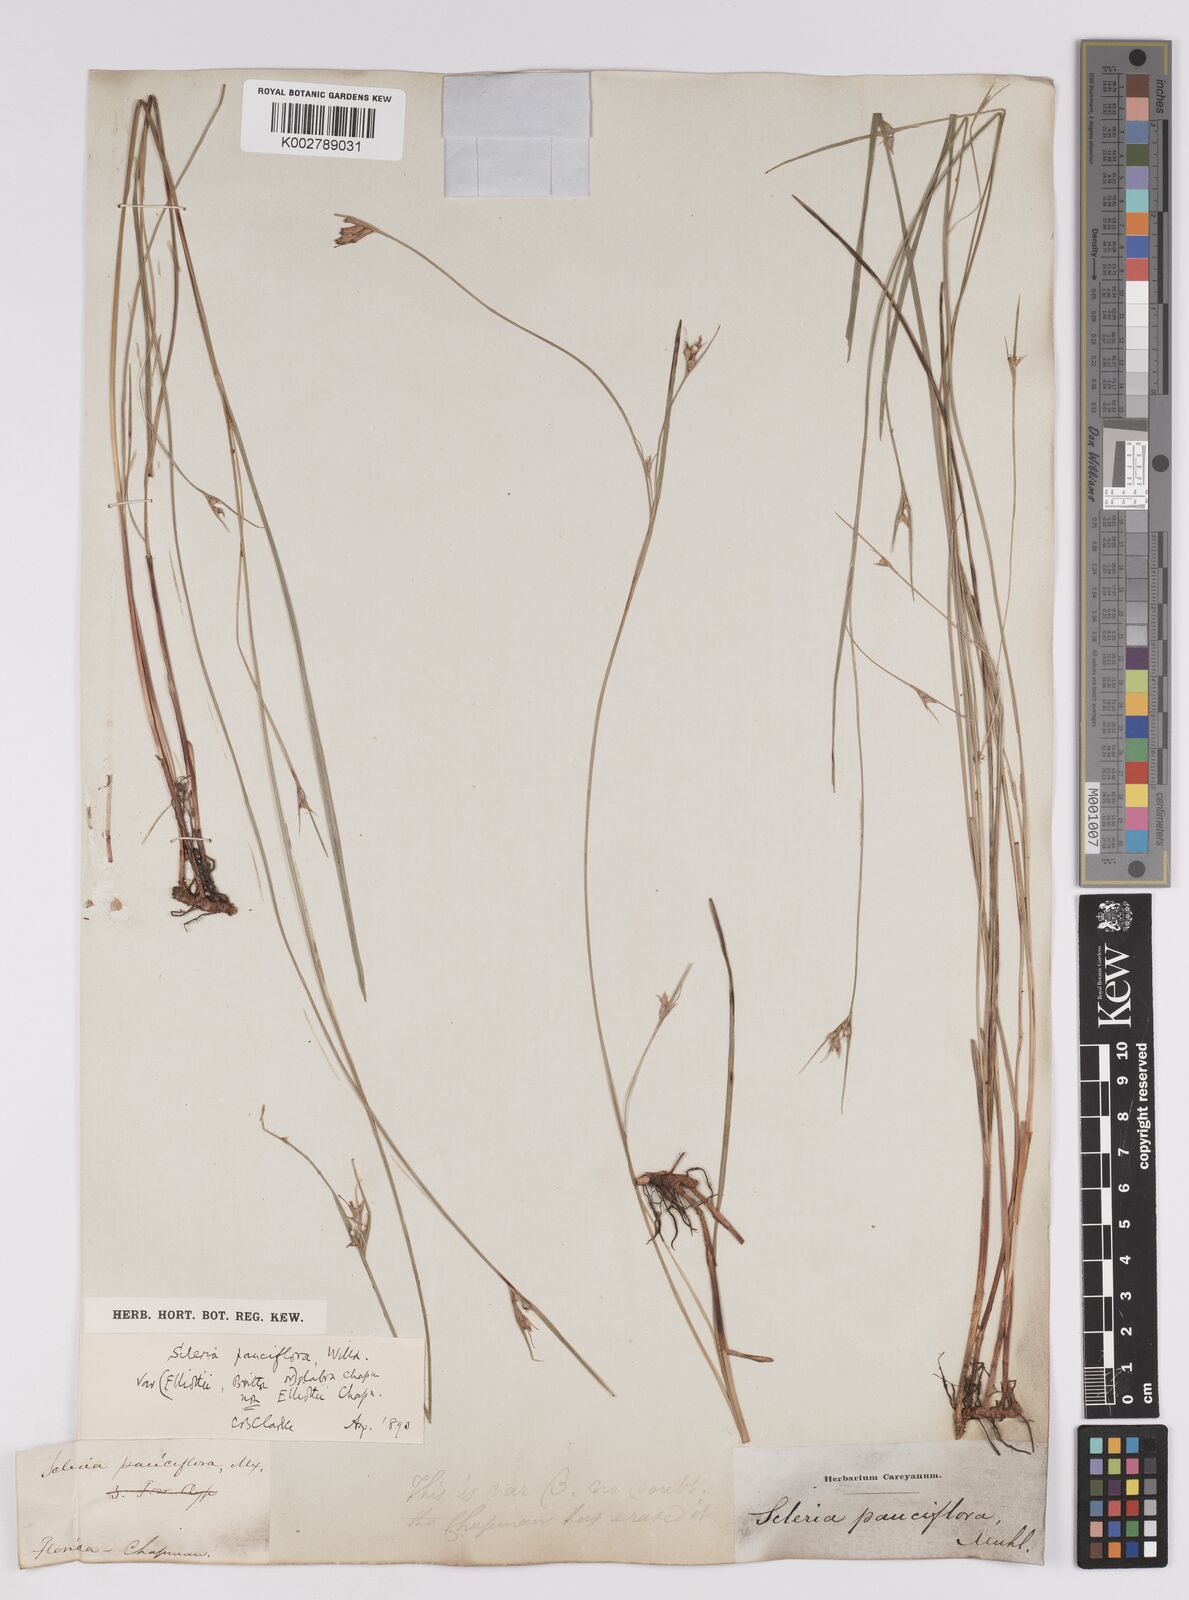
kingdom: Plantae
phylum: Tracheophyta
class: Liliopsida
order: Poales
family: Cyperaceae
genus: Scleria
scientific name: Scleria pauciflora
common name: Few-flowered nutrush
